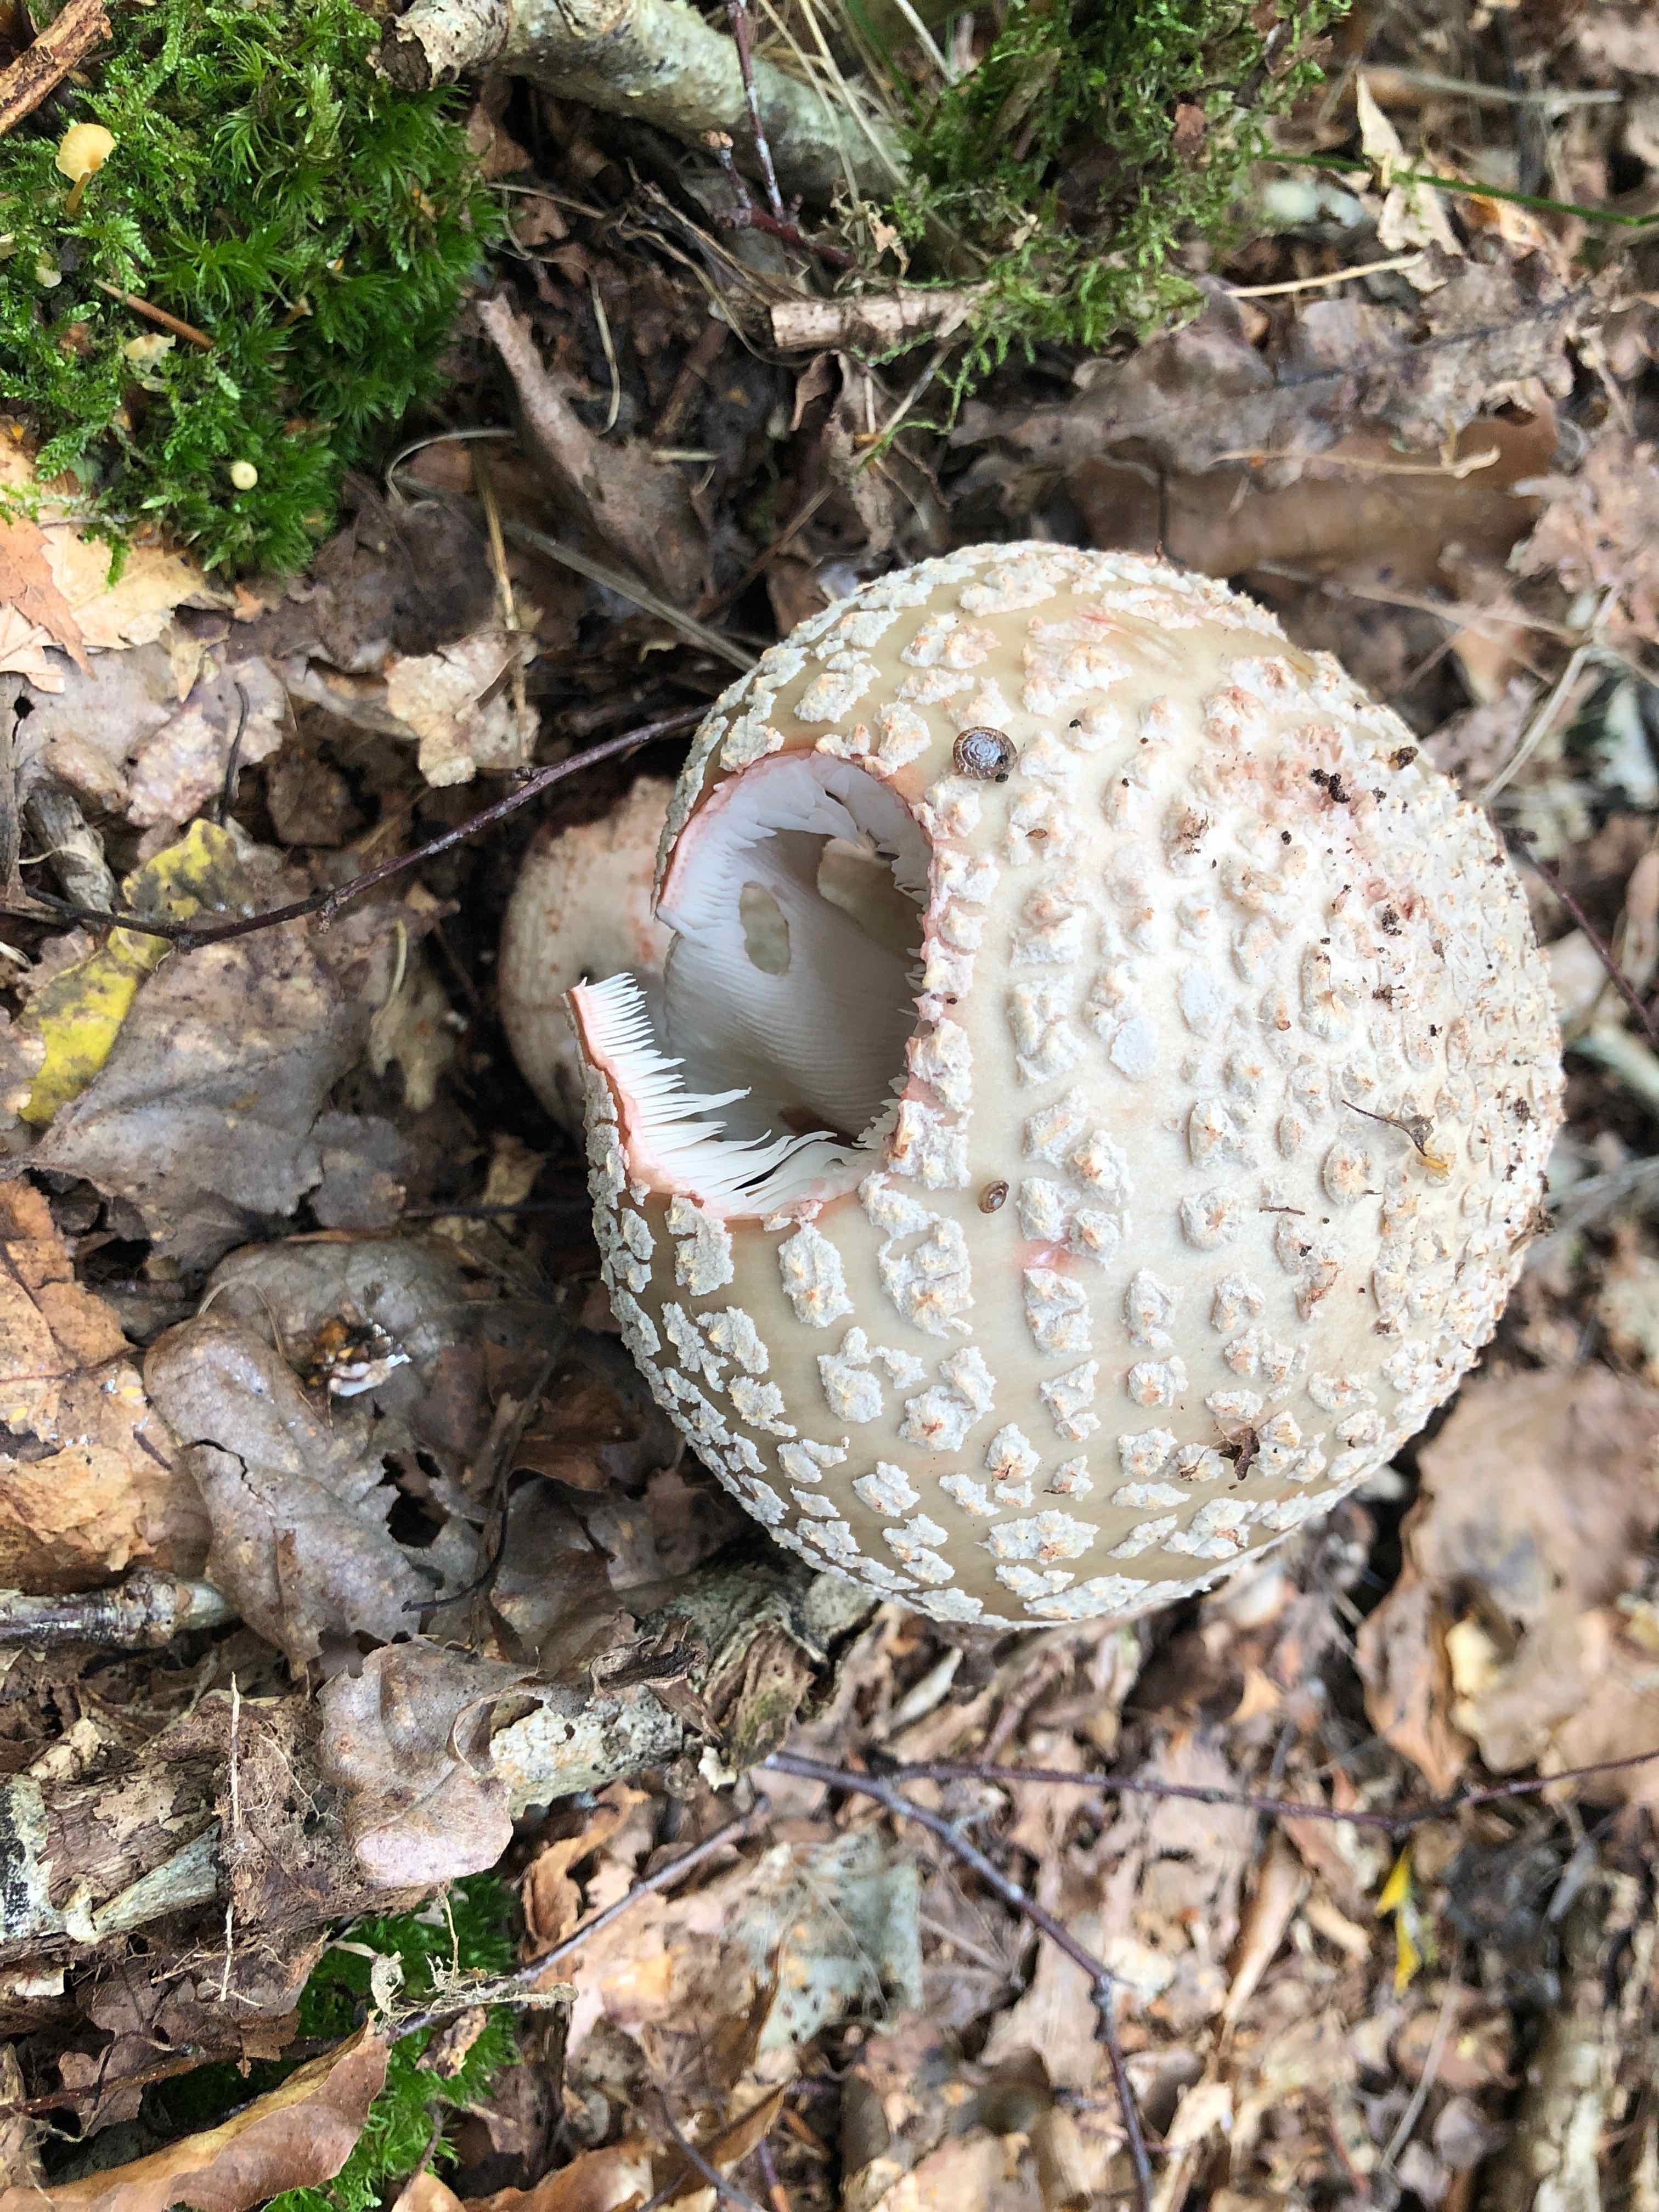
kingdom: Fungi
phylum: Basidiomycota
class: Agaricomycetes
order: Agaricales
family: Amanitaceae
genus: Amanita
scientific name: Amanita rubescens
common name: rødmende fluesvamp
